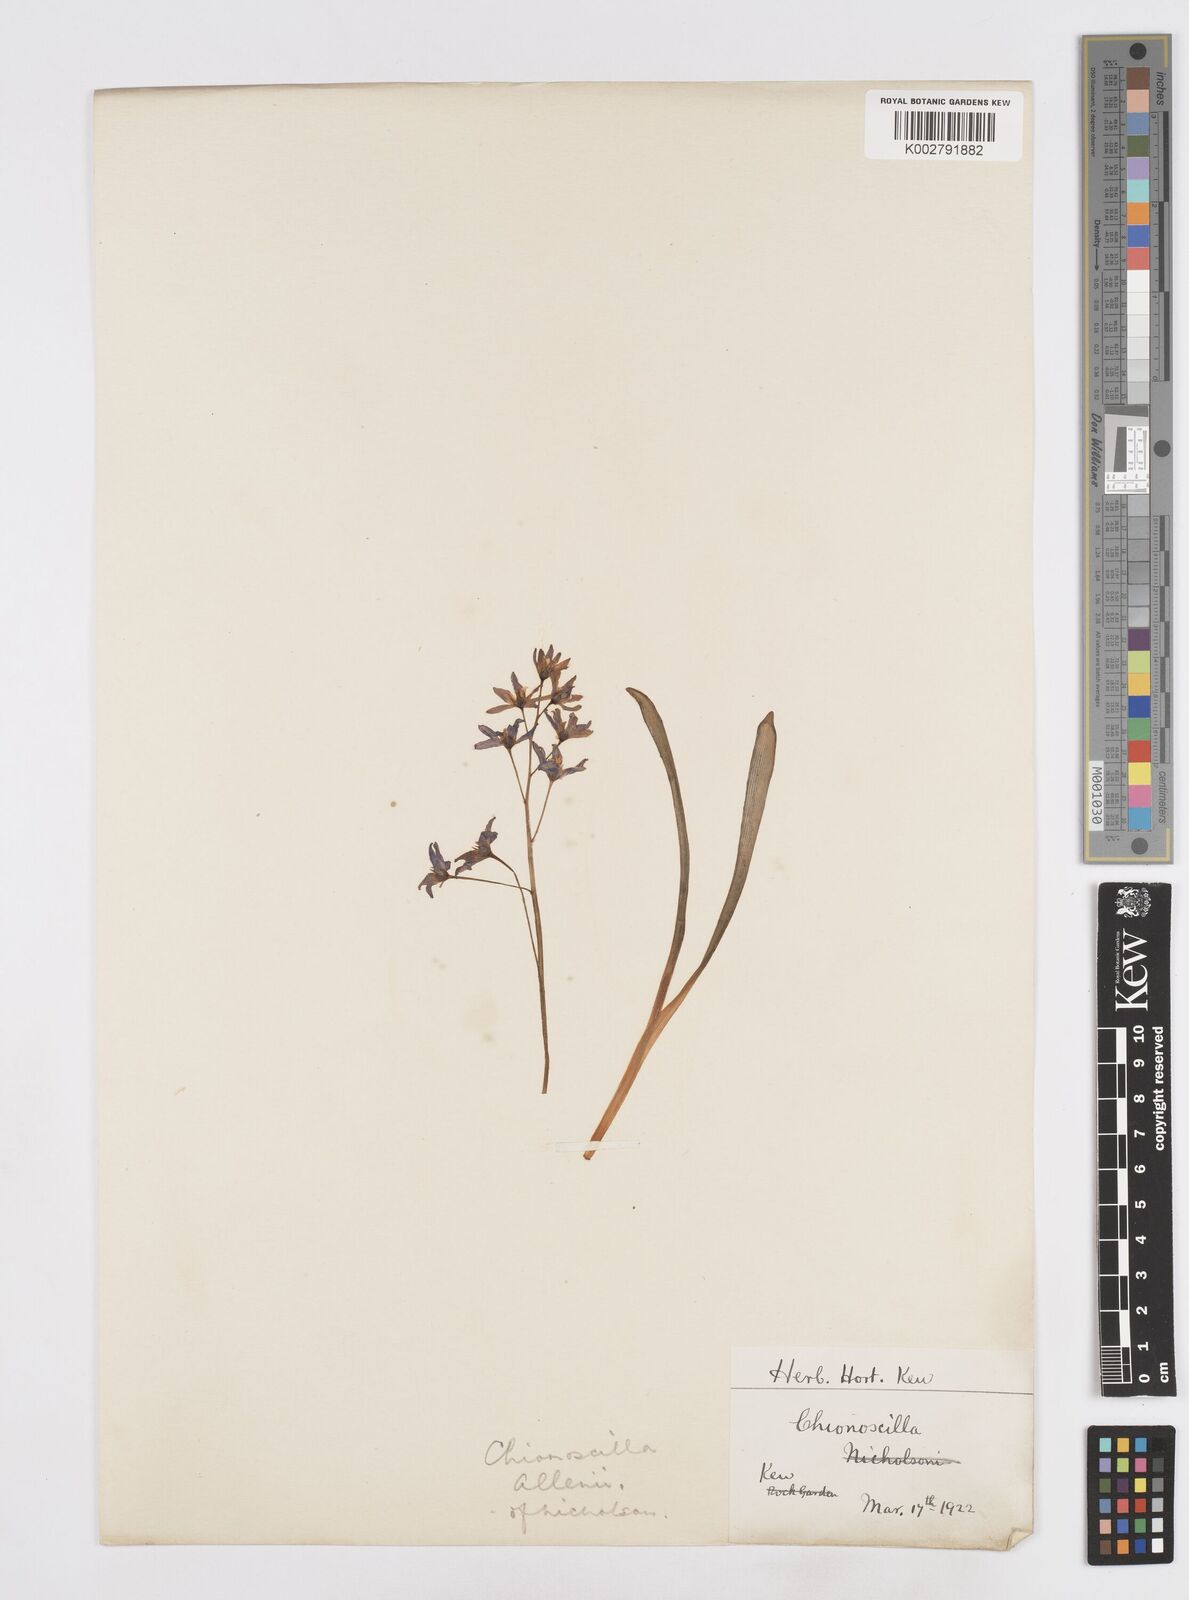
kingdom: Plantae
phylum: Tracheophyta
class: Liliopsida
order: Asparagales
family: Asparagaceae
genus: Scilla
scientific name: Scilla allenii
